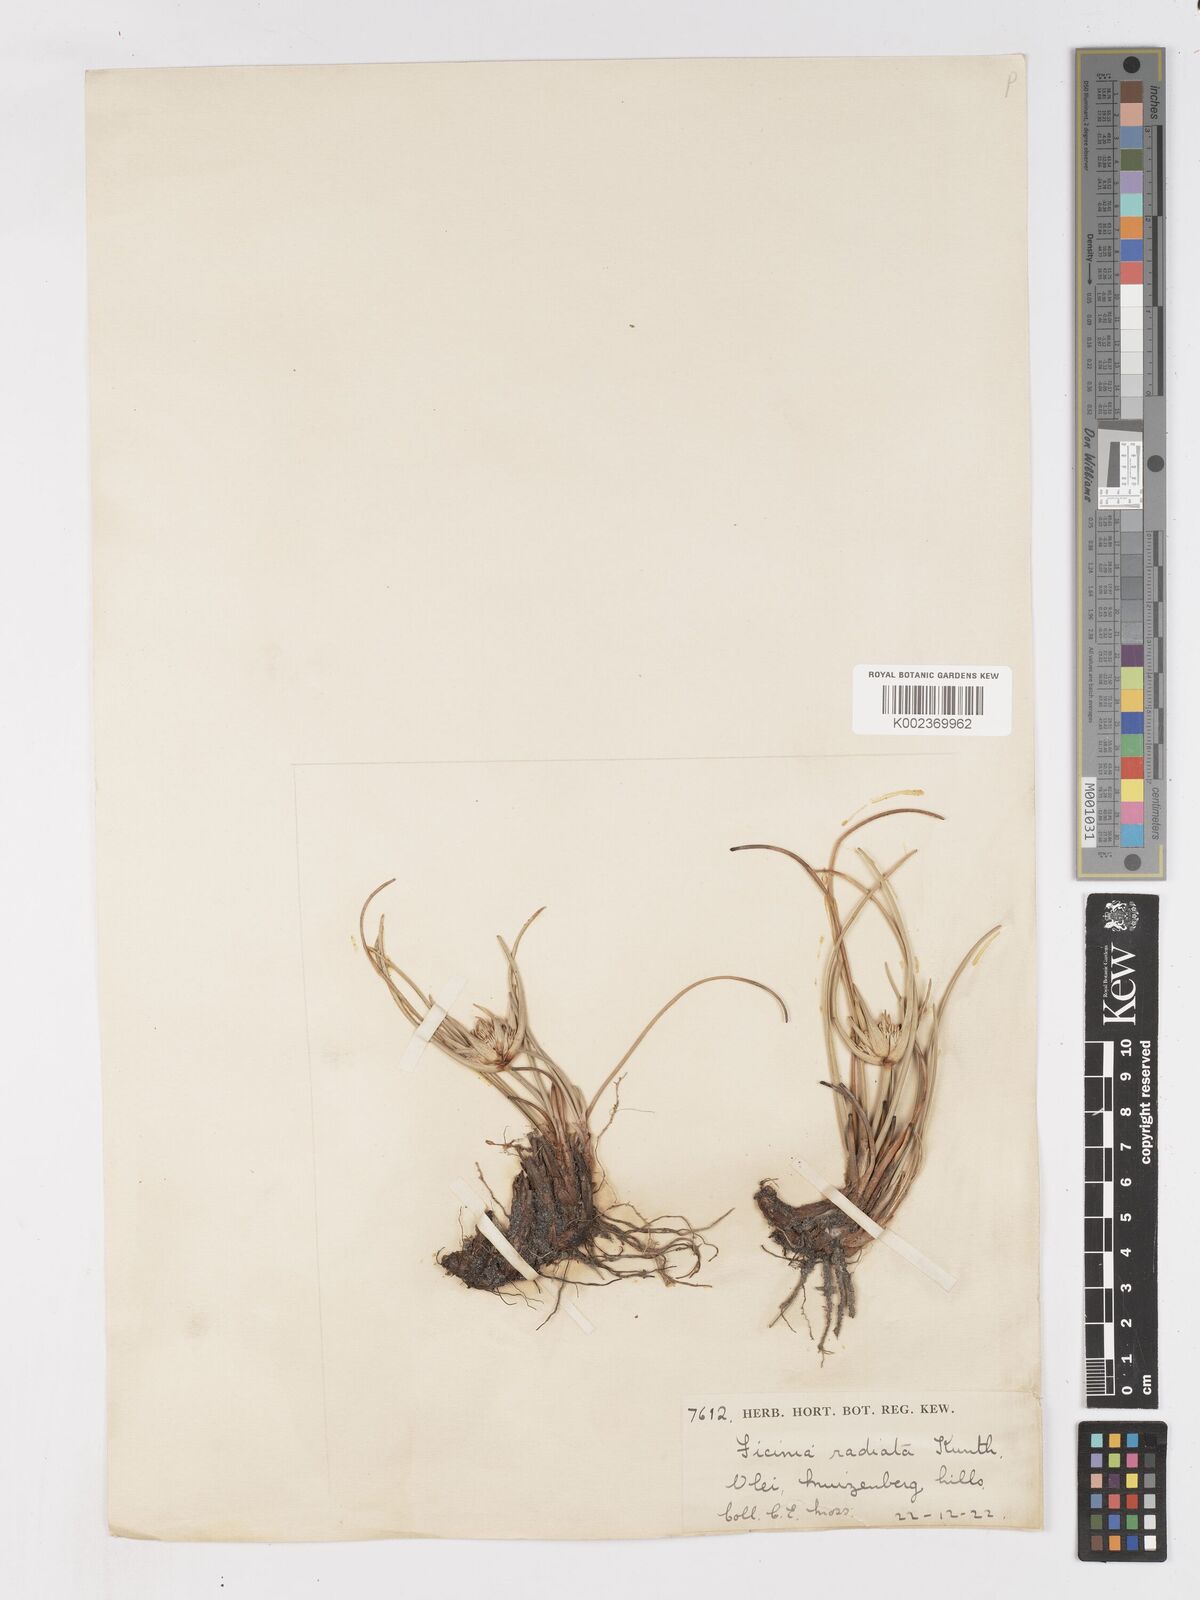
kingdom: Plantae
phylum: Tracheophyta
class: Liliopsida
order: Poales
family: Cyperaceae
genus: Ficinia
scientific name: Ficinia radiata
